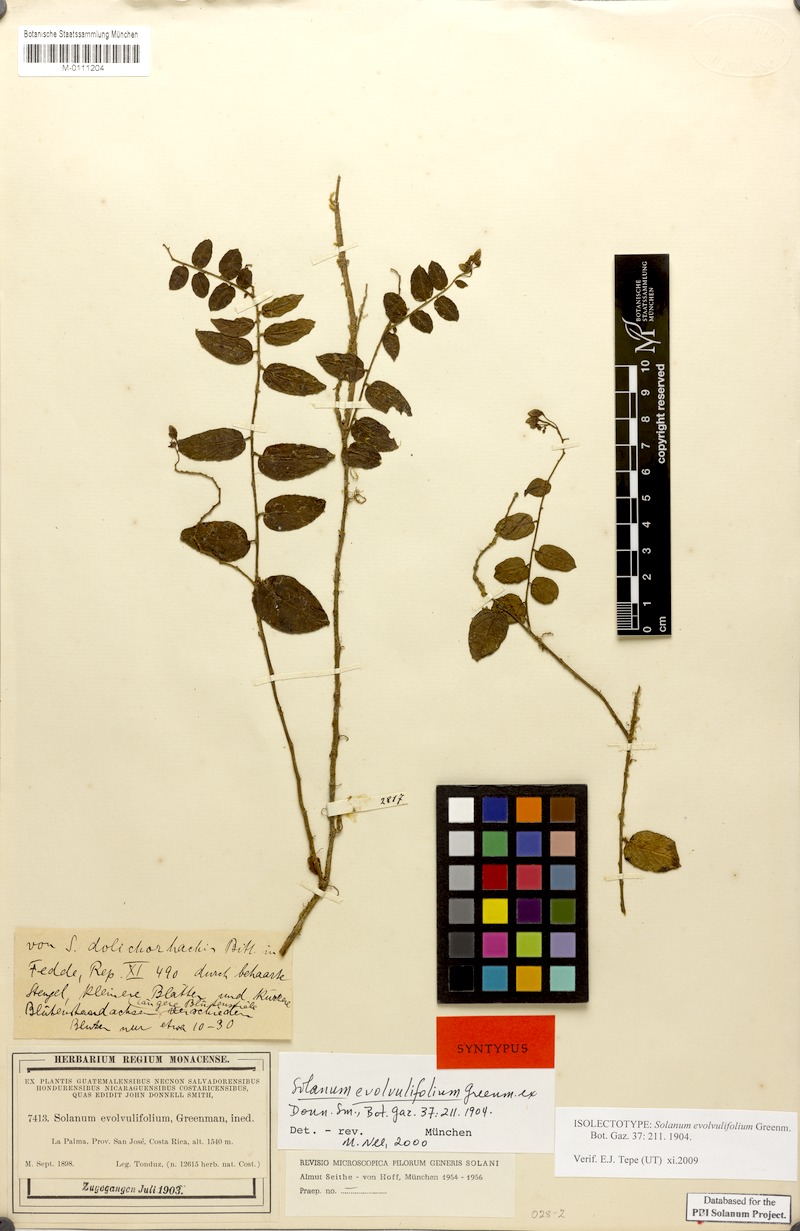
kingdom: Plantae
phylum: Tracheophyta
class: Magnoliopsida
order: Solanales
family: Solanaceae
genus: Solanum
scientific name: Solanum evolvulifolium
